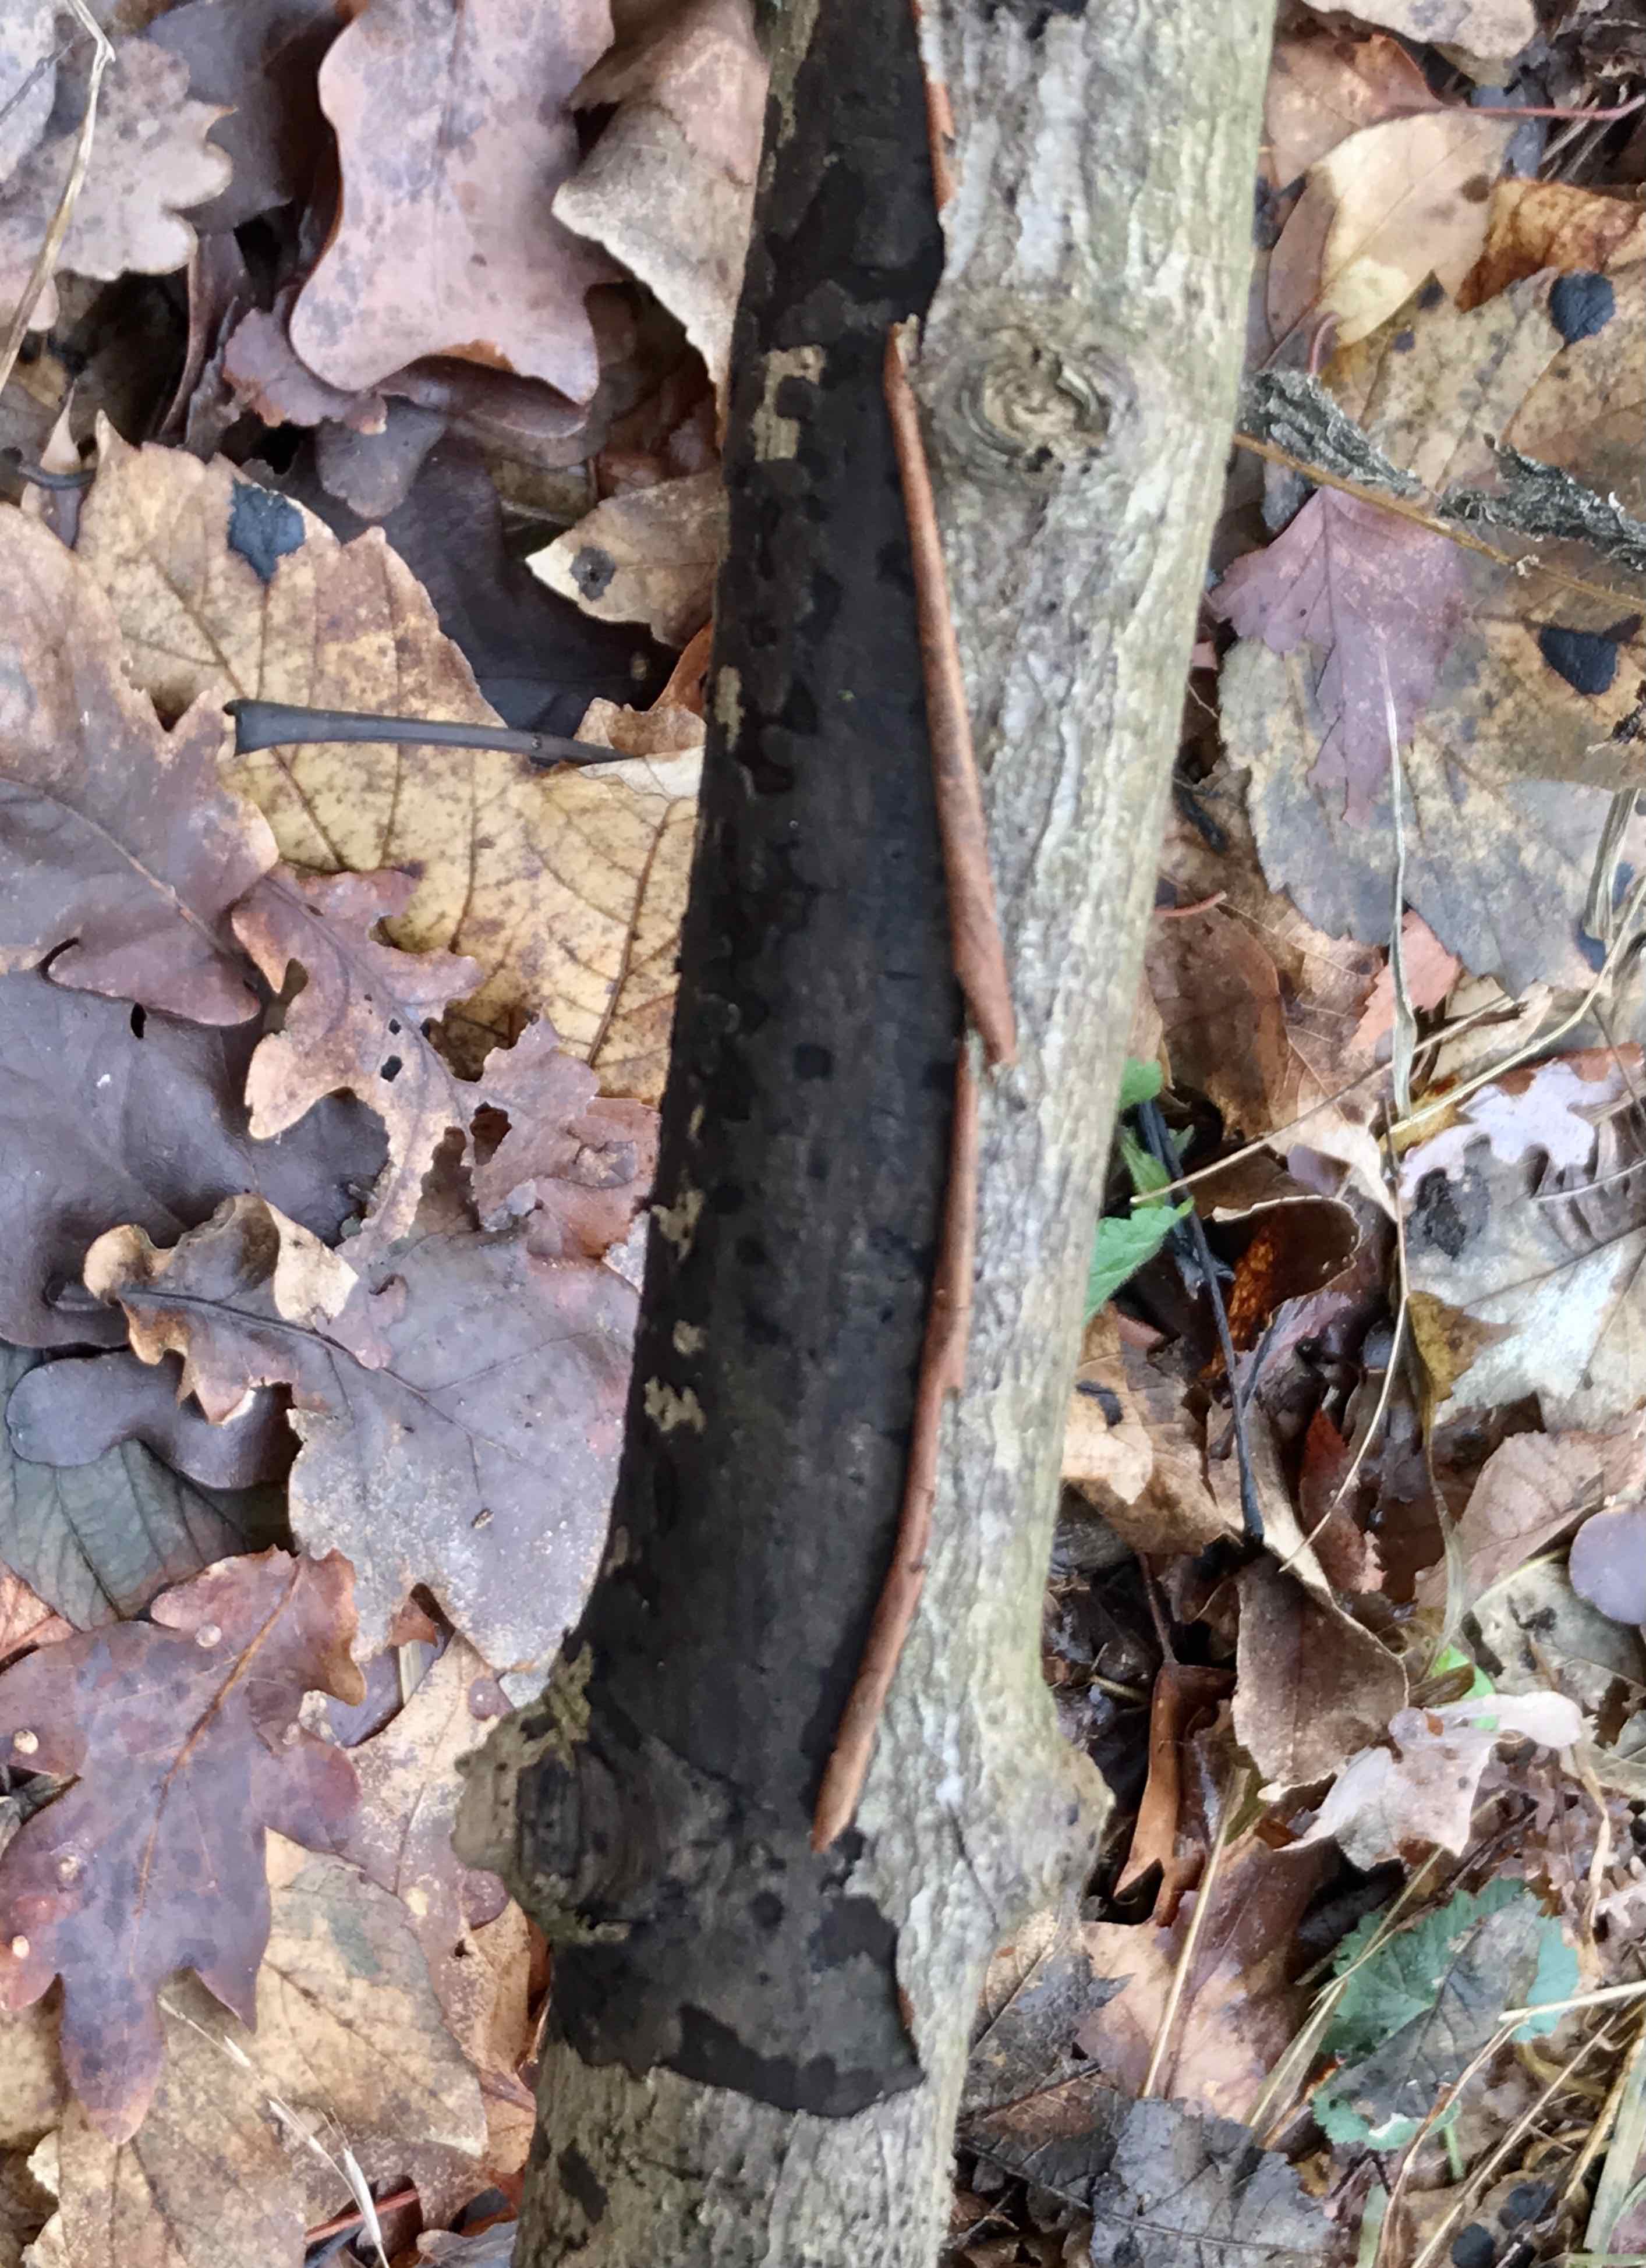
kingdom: Fungi
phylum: Ascomycota
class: Sordariomycetes
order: Xylariales
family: Diatrypaceae
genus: Diatrype
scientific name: Diatrype decorticata
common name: barksprænger-kulskorpe
